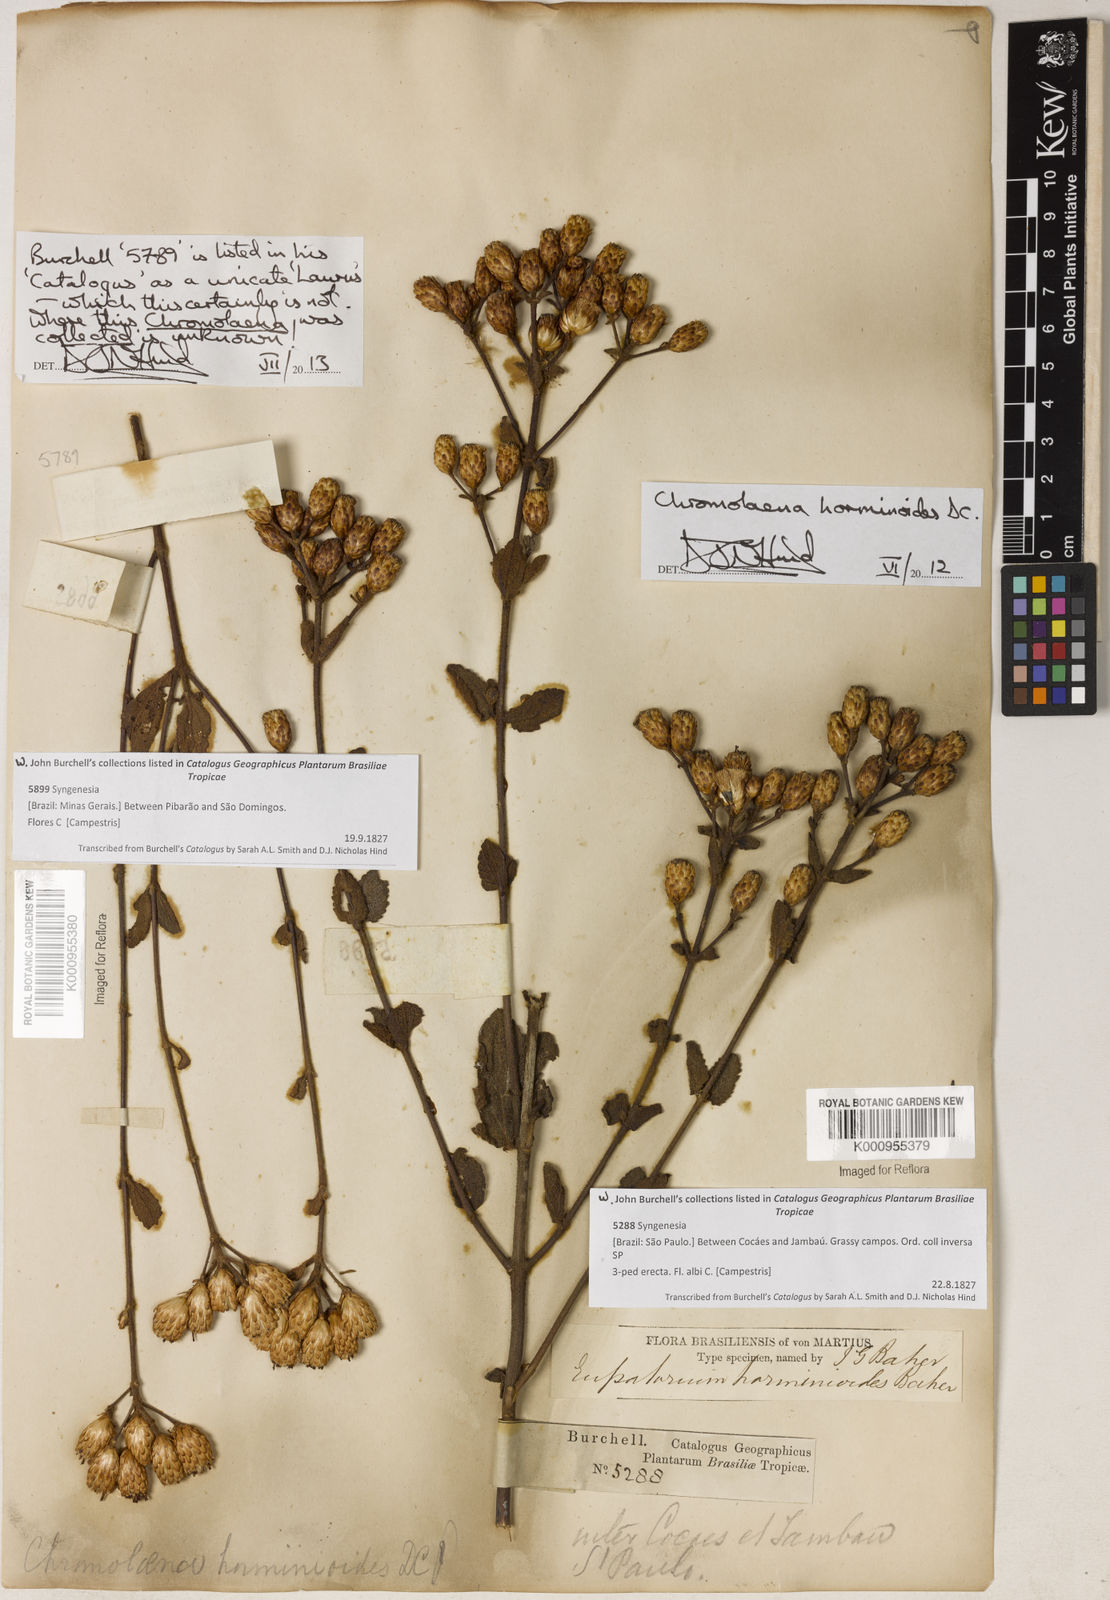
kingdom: Plantae
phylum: Tracheophyta
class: Magnoliopsida
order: Asterales
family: Asteraceae
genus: Chromolaena
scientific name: Chromolaena horminoides
